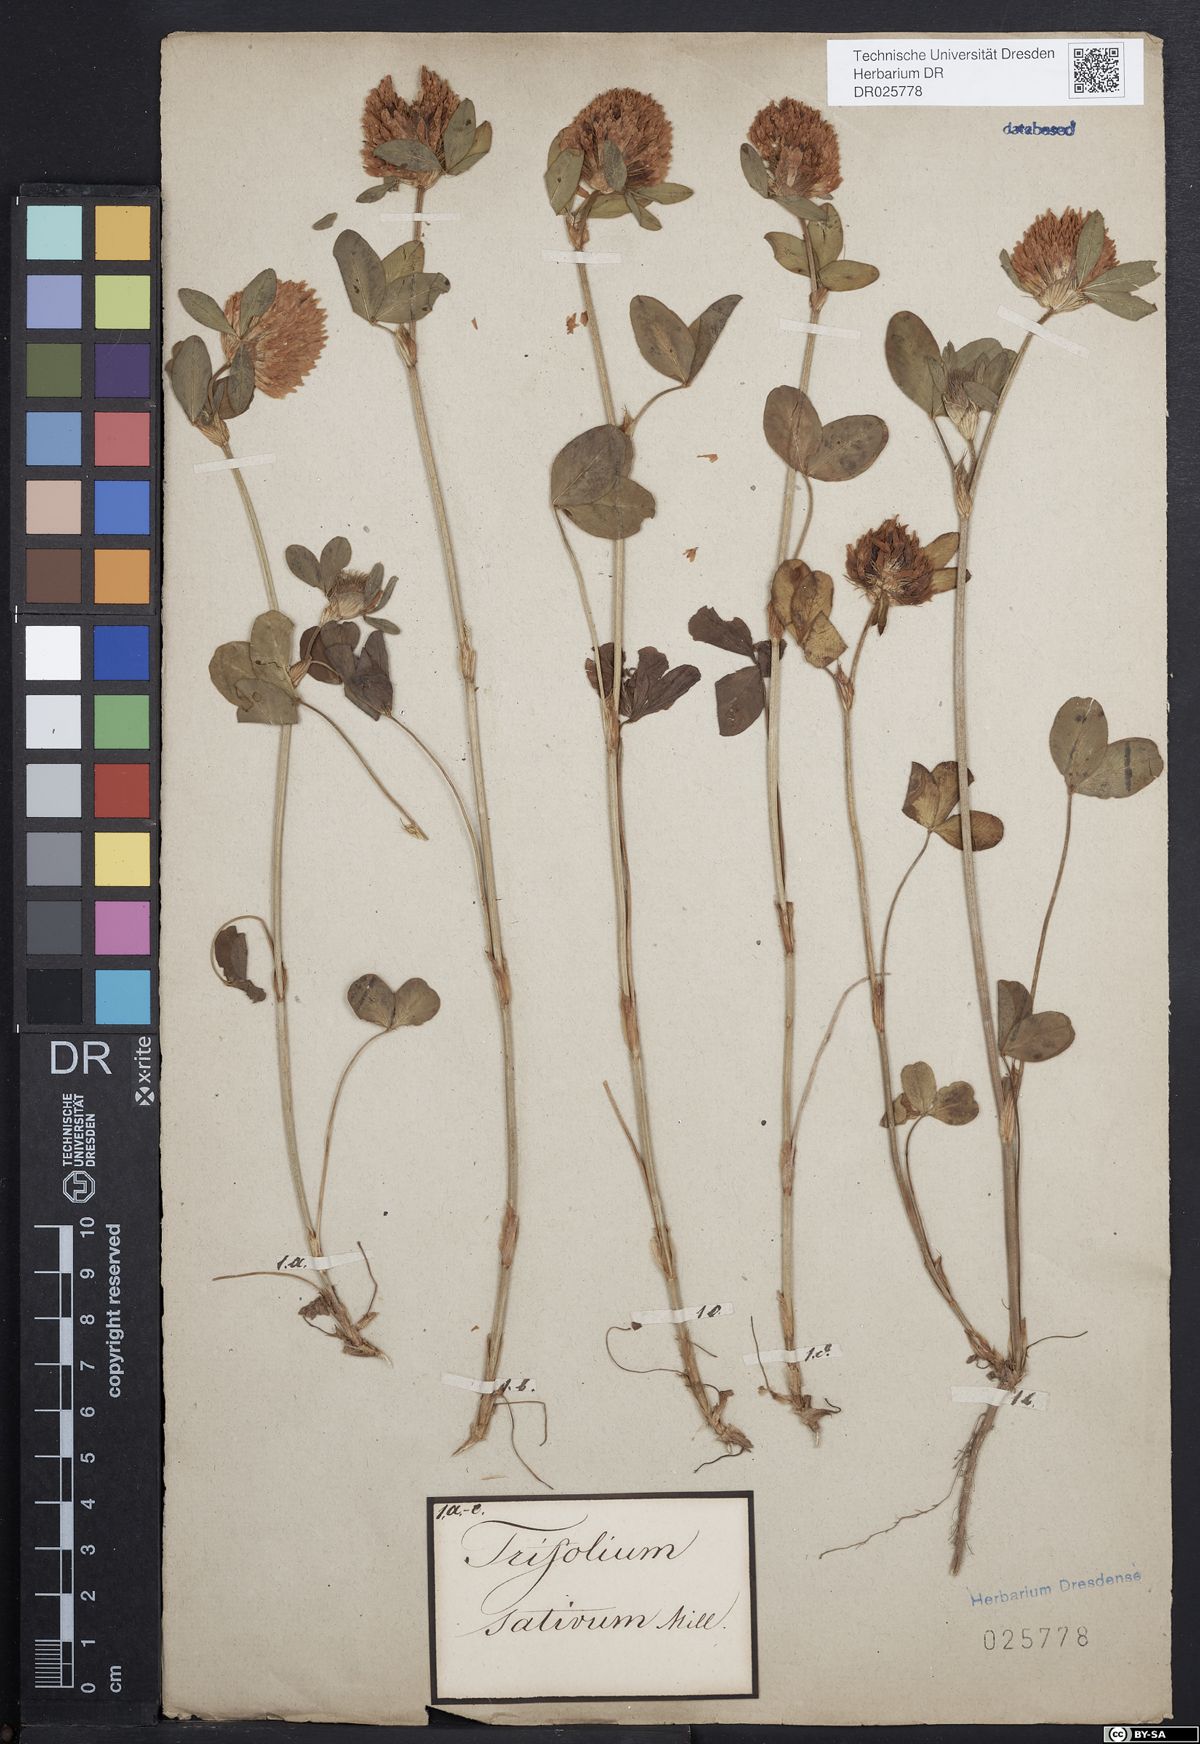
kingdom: Plantae
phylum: Tracheophyta
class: Magnoliopsida
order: Fabales
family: Fabaceae
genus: Trifolium
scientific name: Trifolium pratense
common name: Red clover
